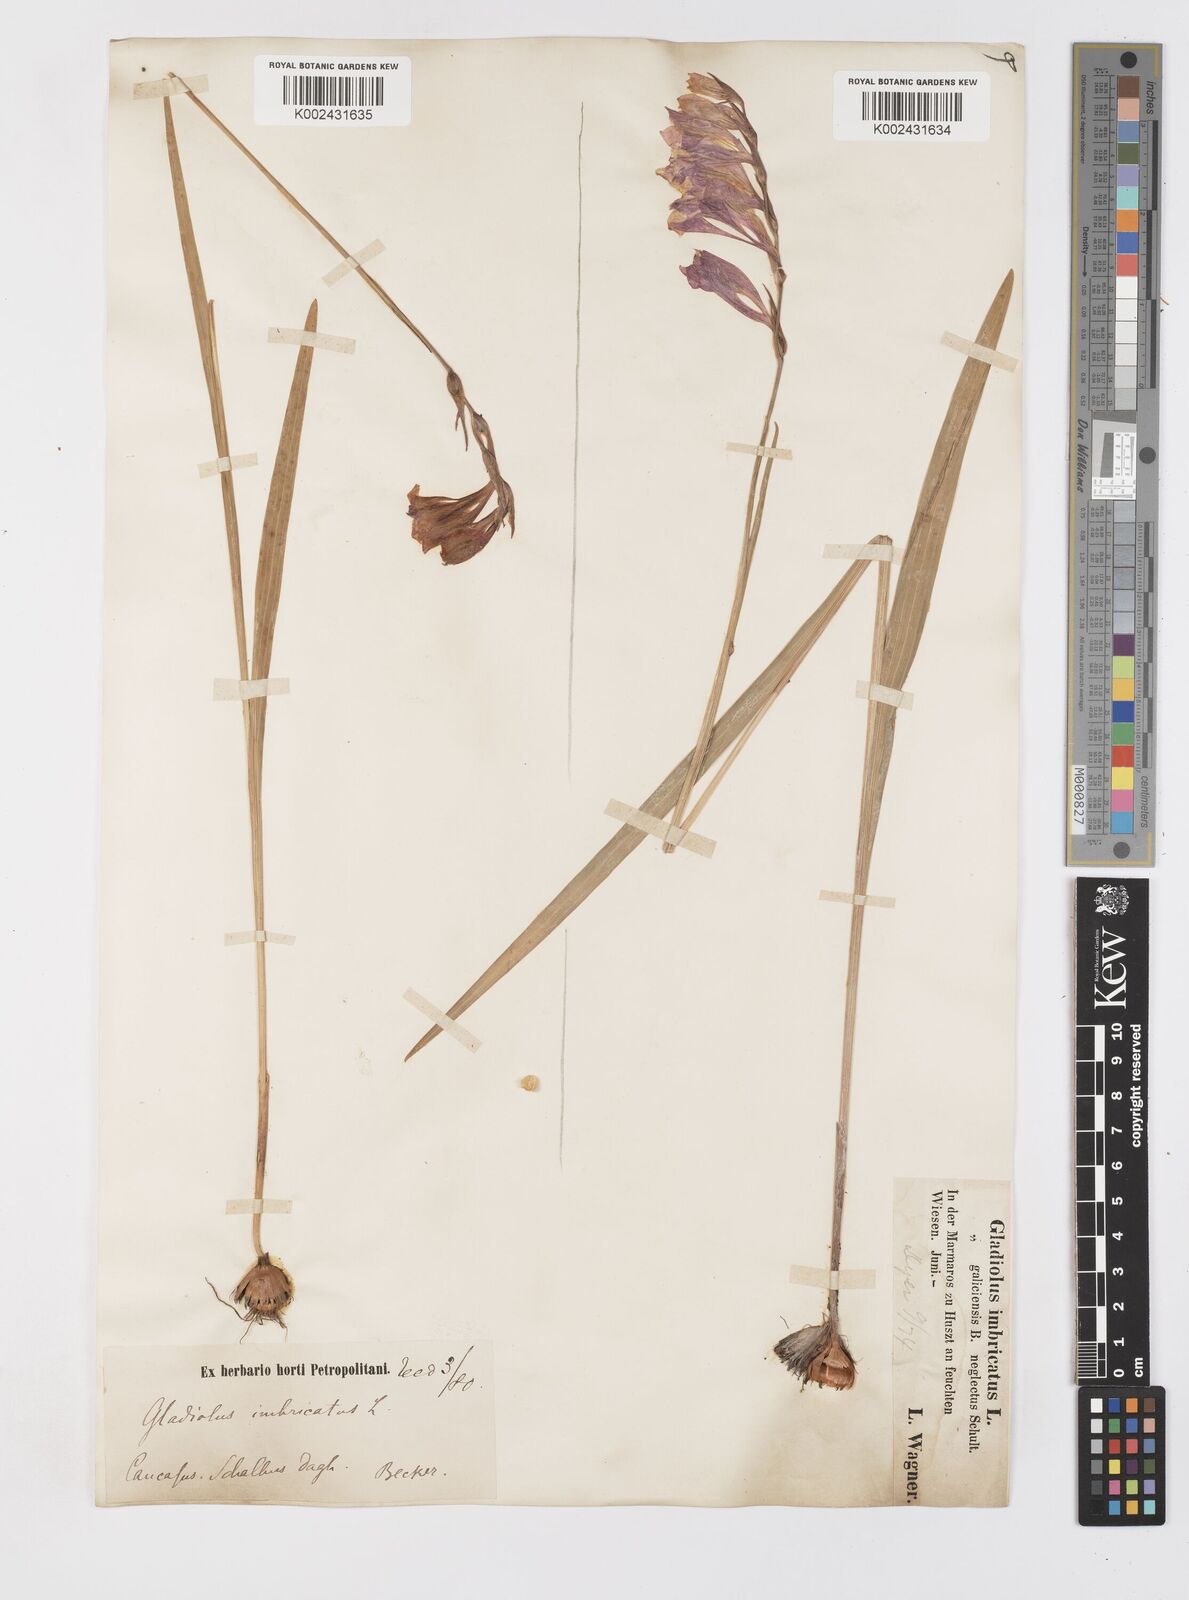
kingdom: Plantae
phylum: Tracheophyta
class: Liliopsida
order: Asparagales
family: Iridaceae
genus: Gladiolus
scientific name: Gladiolus imbricatus
